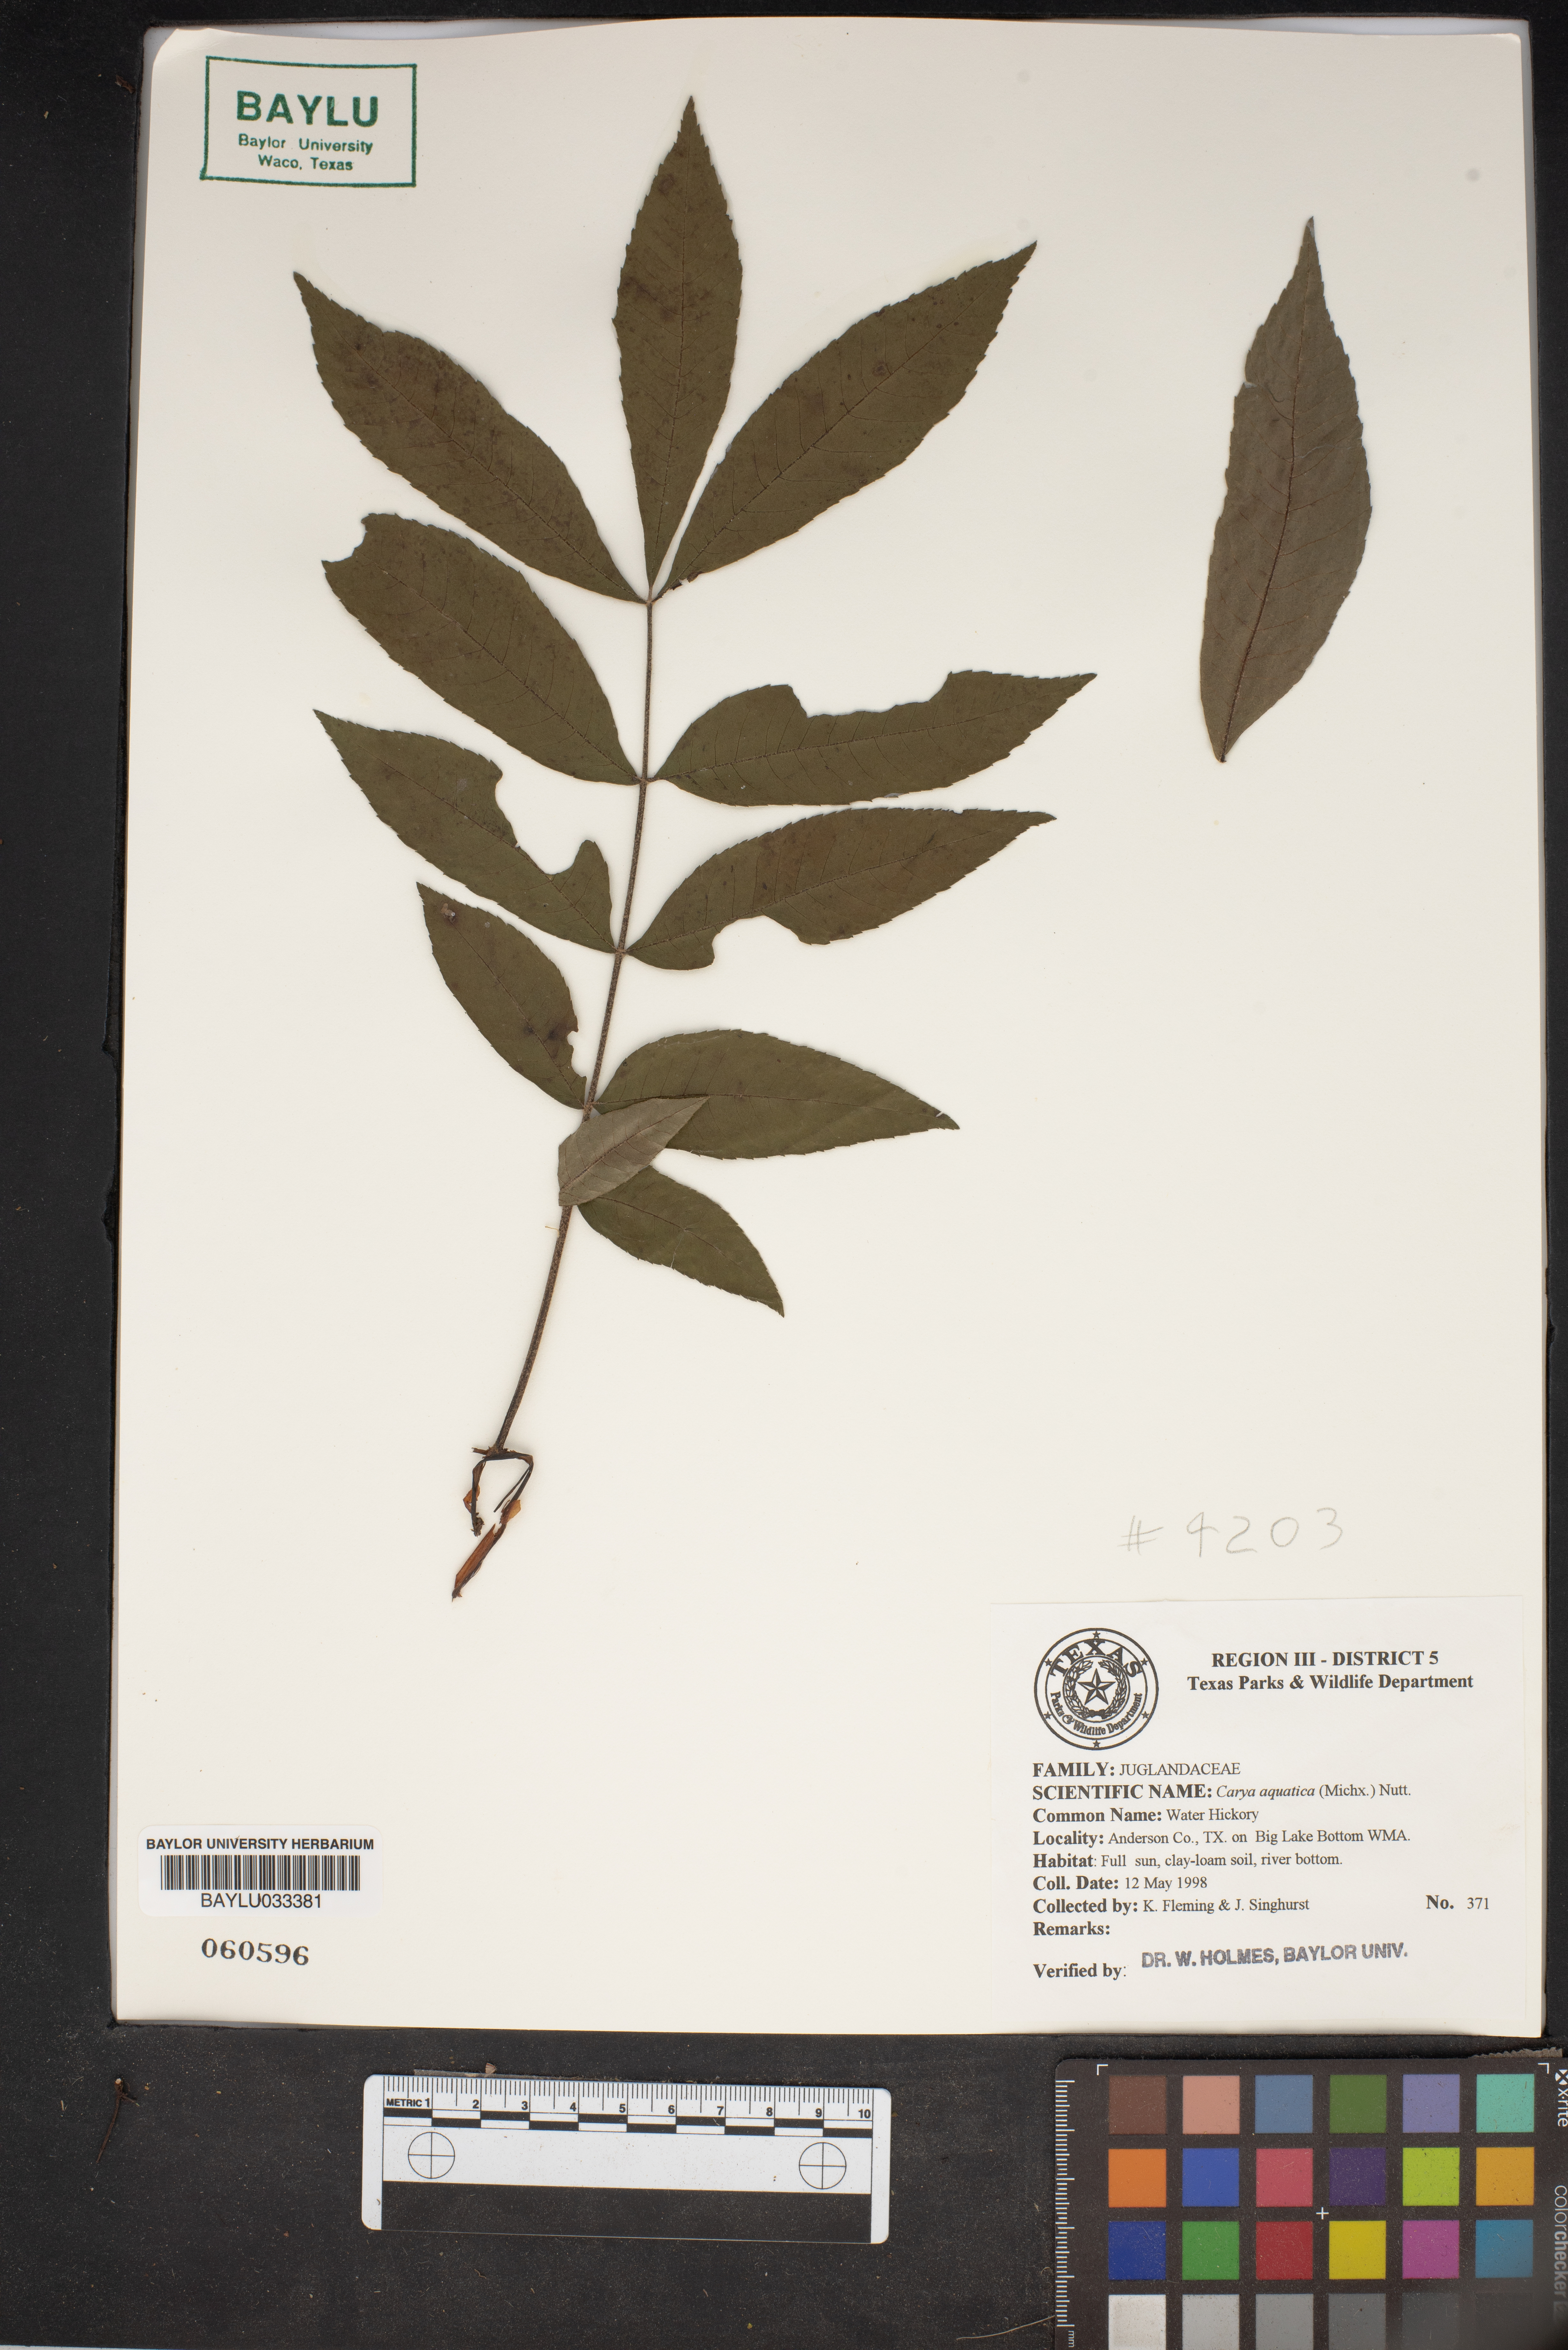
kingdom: Plantae
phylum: Tracheophyta
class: Magnoliopsida
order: Fagales
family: Juglandaceae
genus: Carya
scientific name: Carya aquatica
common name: Water hickory
